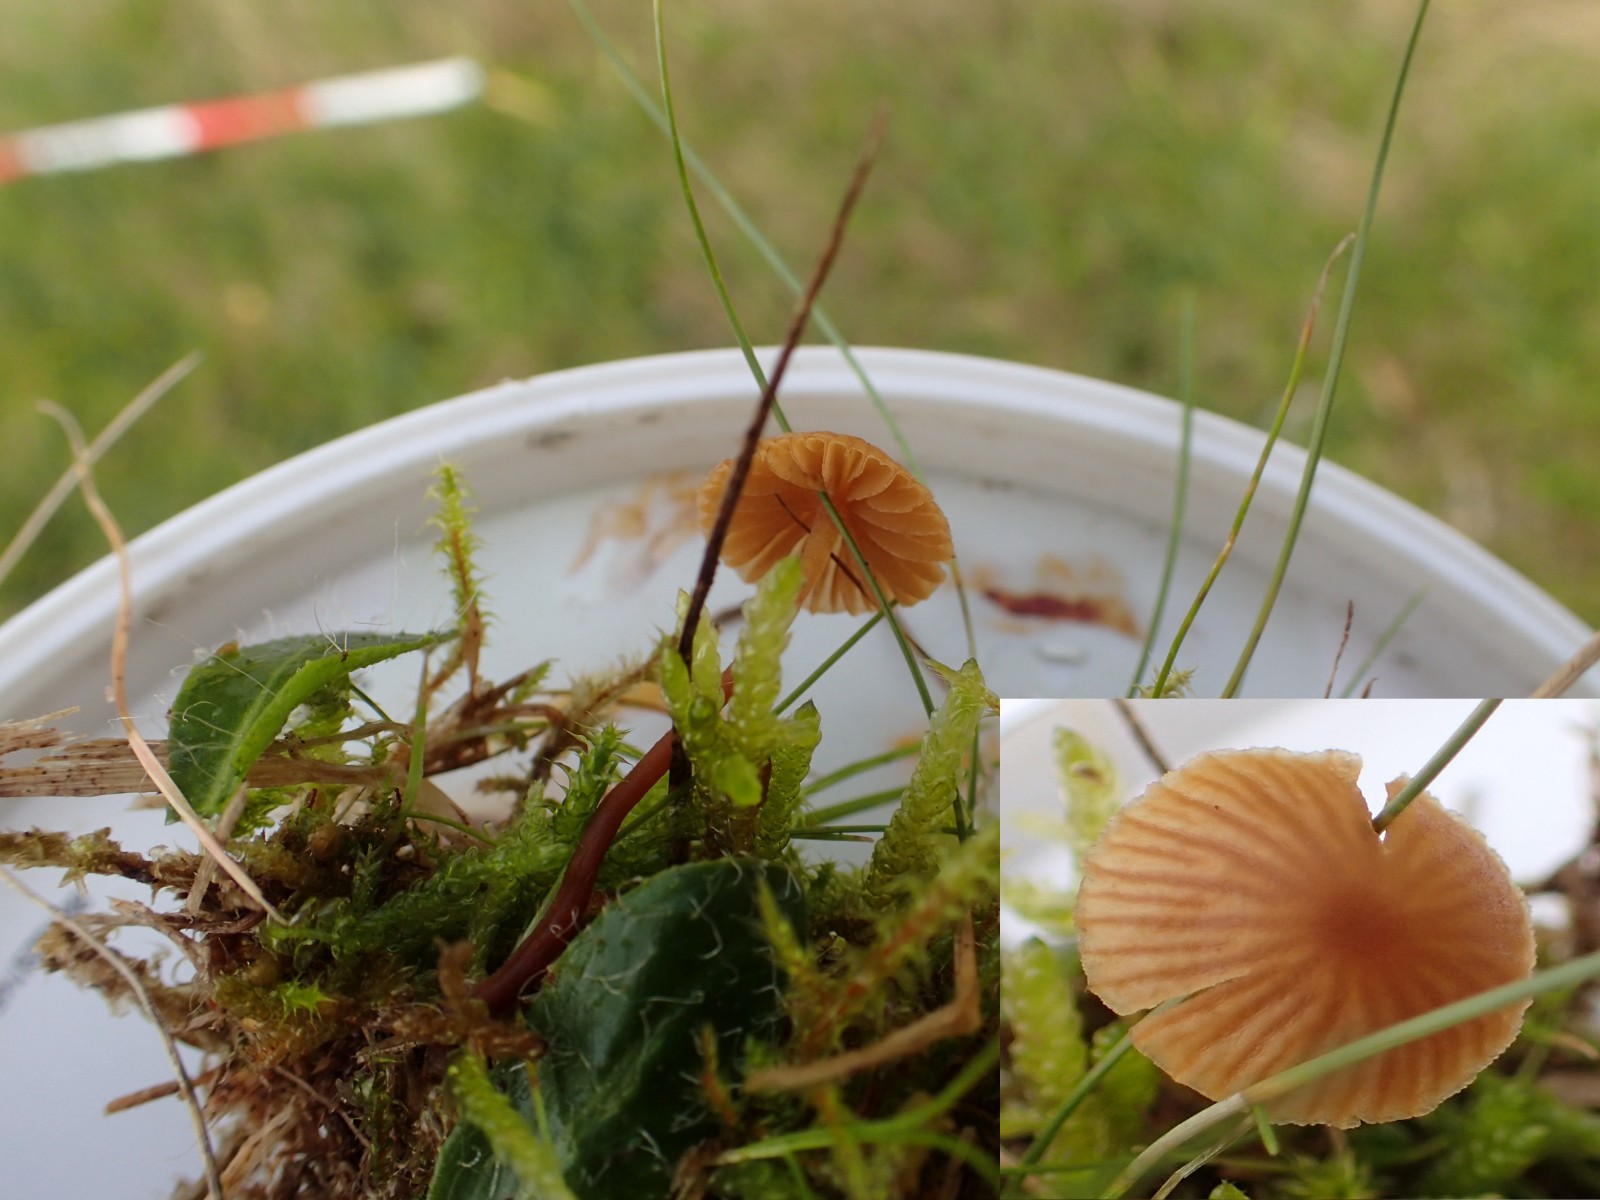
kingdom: Fungi
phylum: Basidiomycota
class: Agaricomycetes
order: Agaricales
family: Hymenogastraceae
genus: Galerina
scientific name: Galerina
